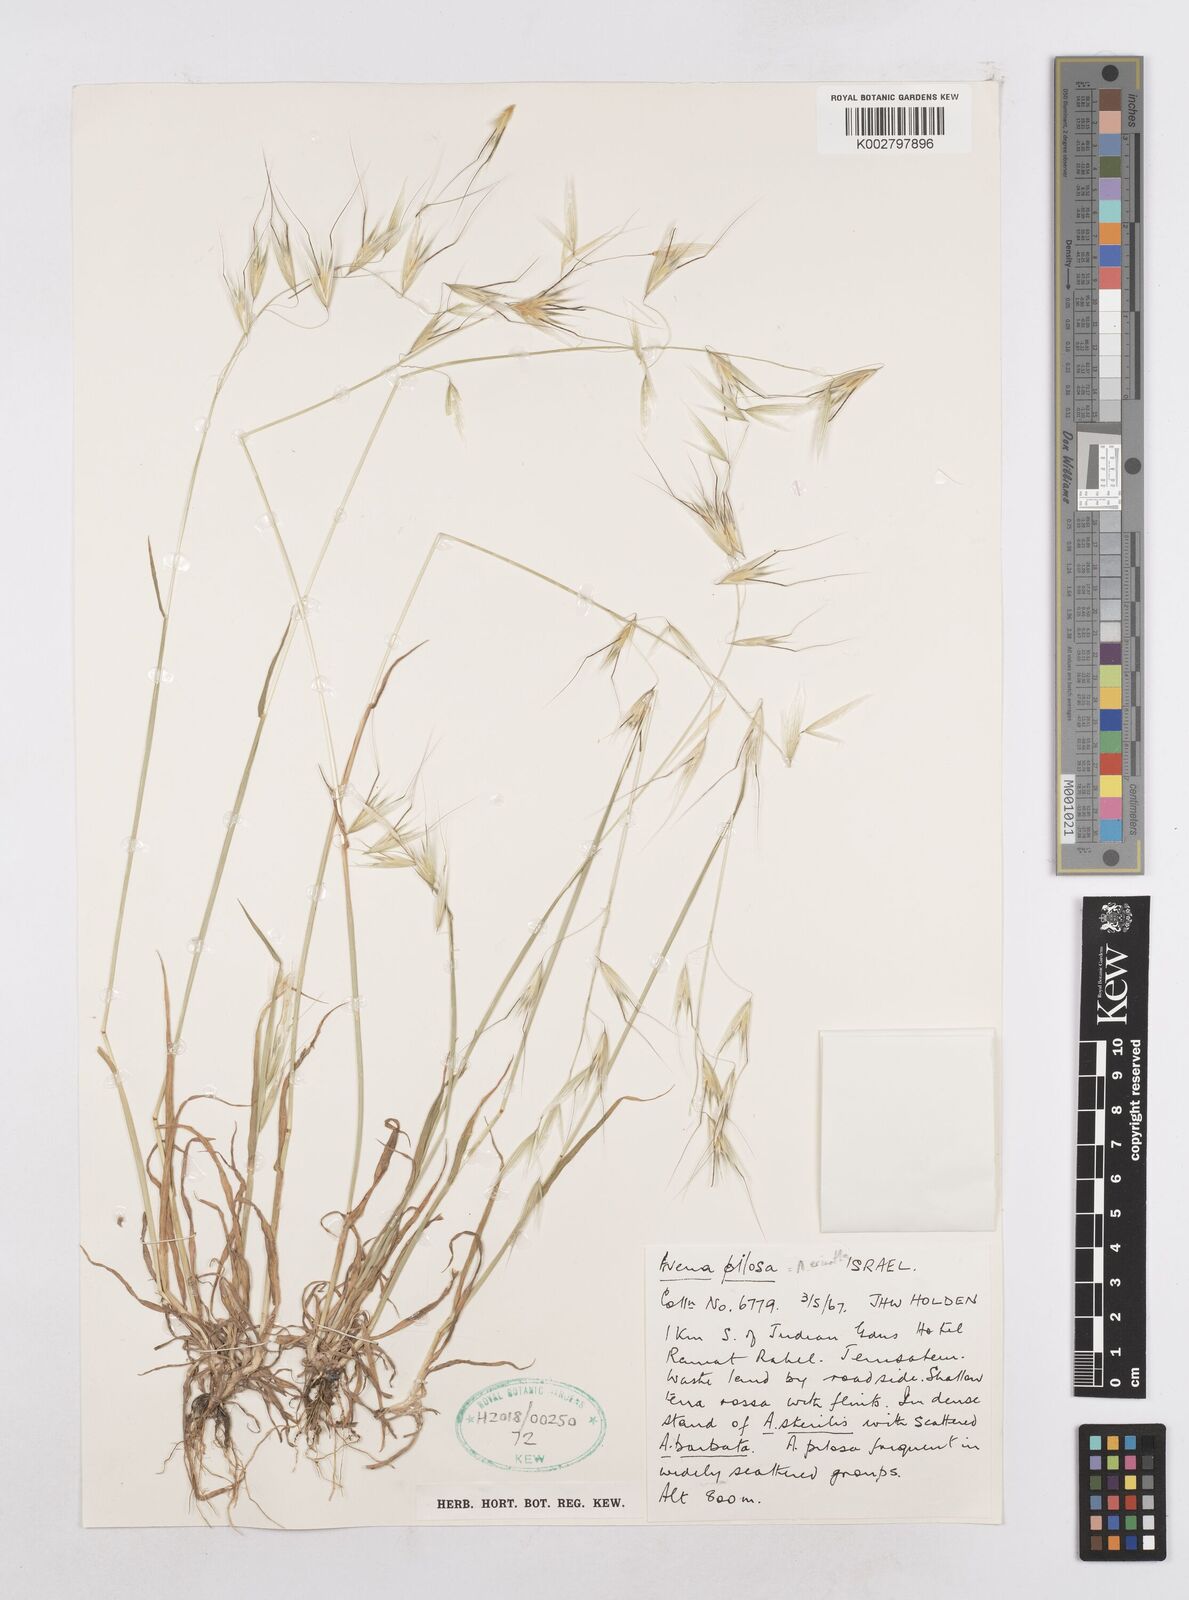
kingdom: Plantae
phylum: Tracheophyta
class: Liliopsida
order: Poales
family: Poaceae
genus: Avena
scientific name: Avena
